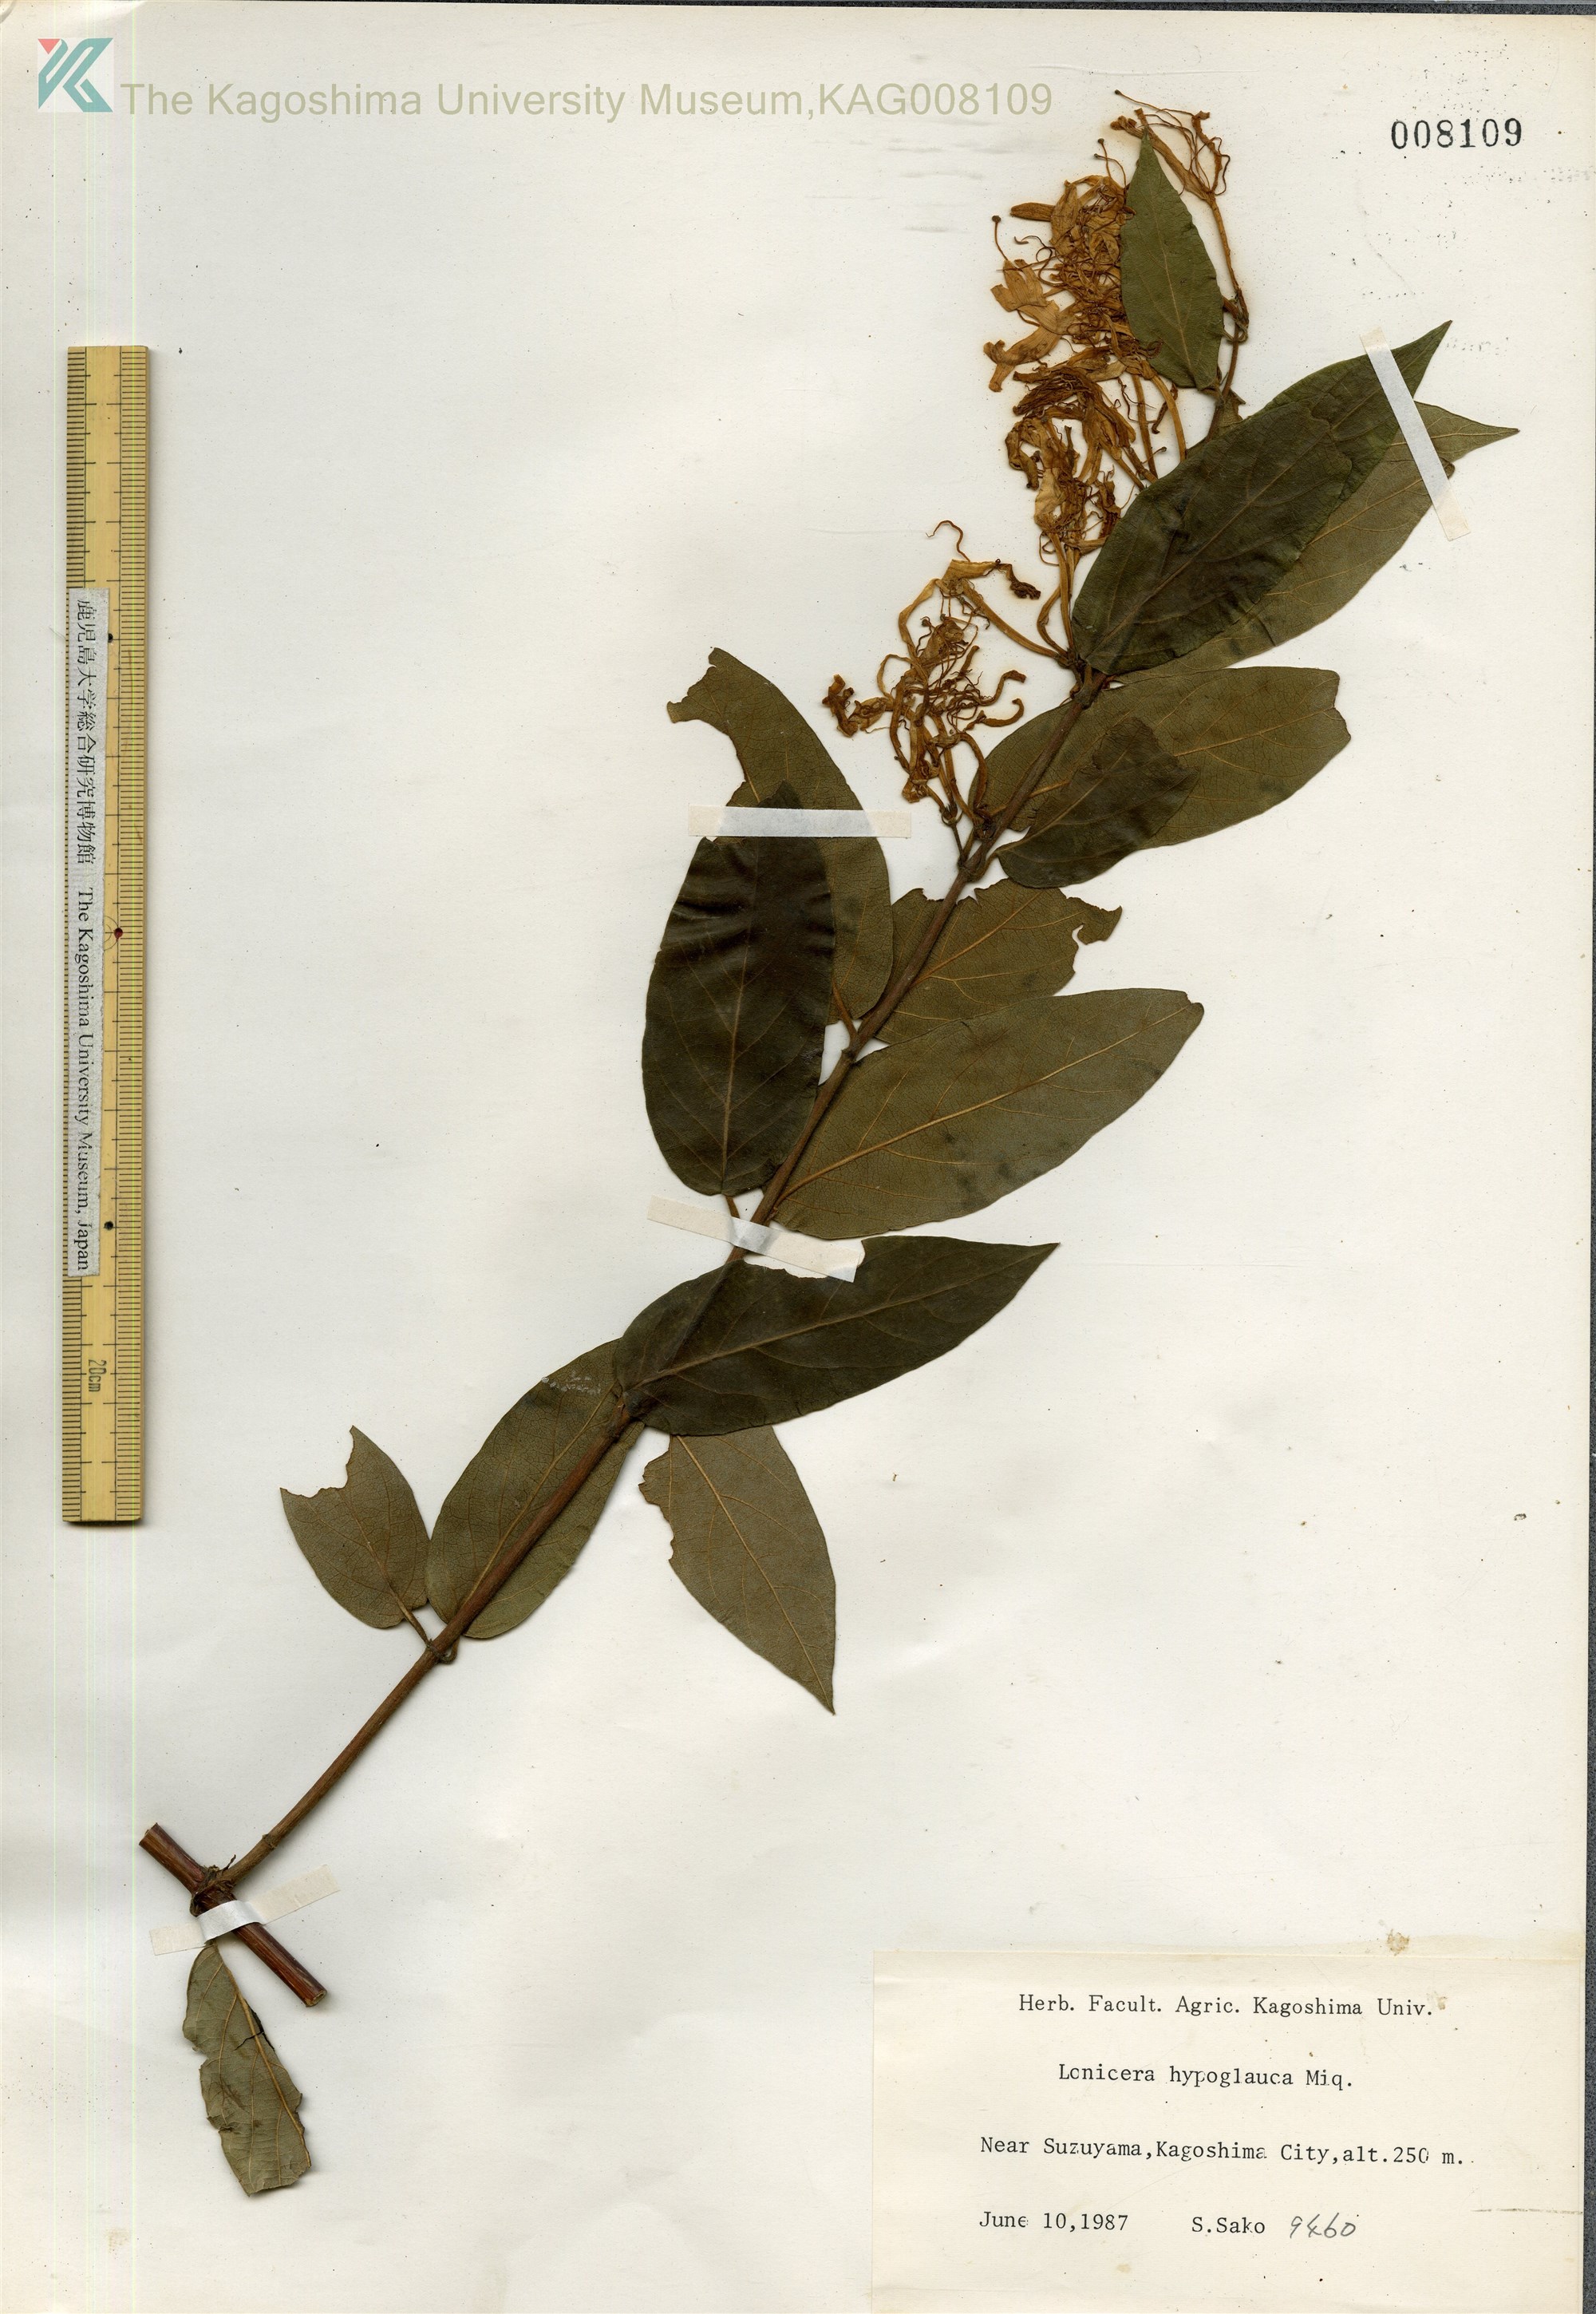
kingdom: Plantae
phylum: Tracheophyta
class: Magnoliopsida
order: Dipsacales
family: Caprifoliaceae
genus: Lonicera
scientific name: Lonicera hypoglauca
